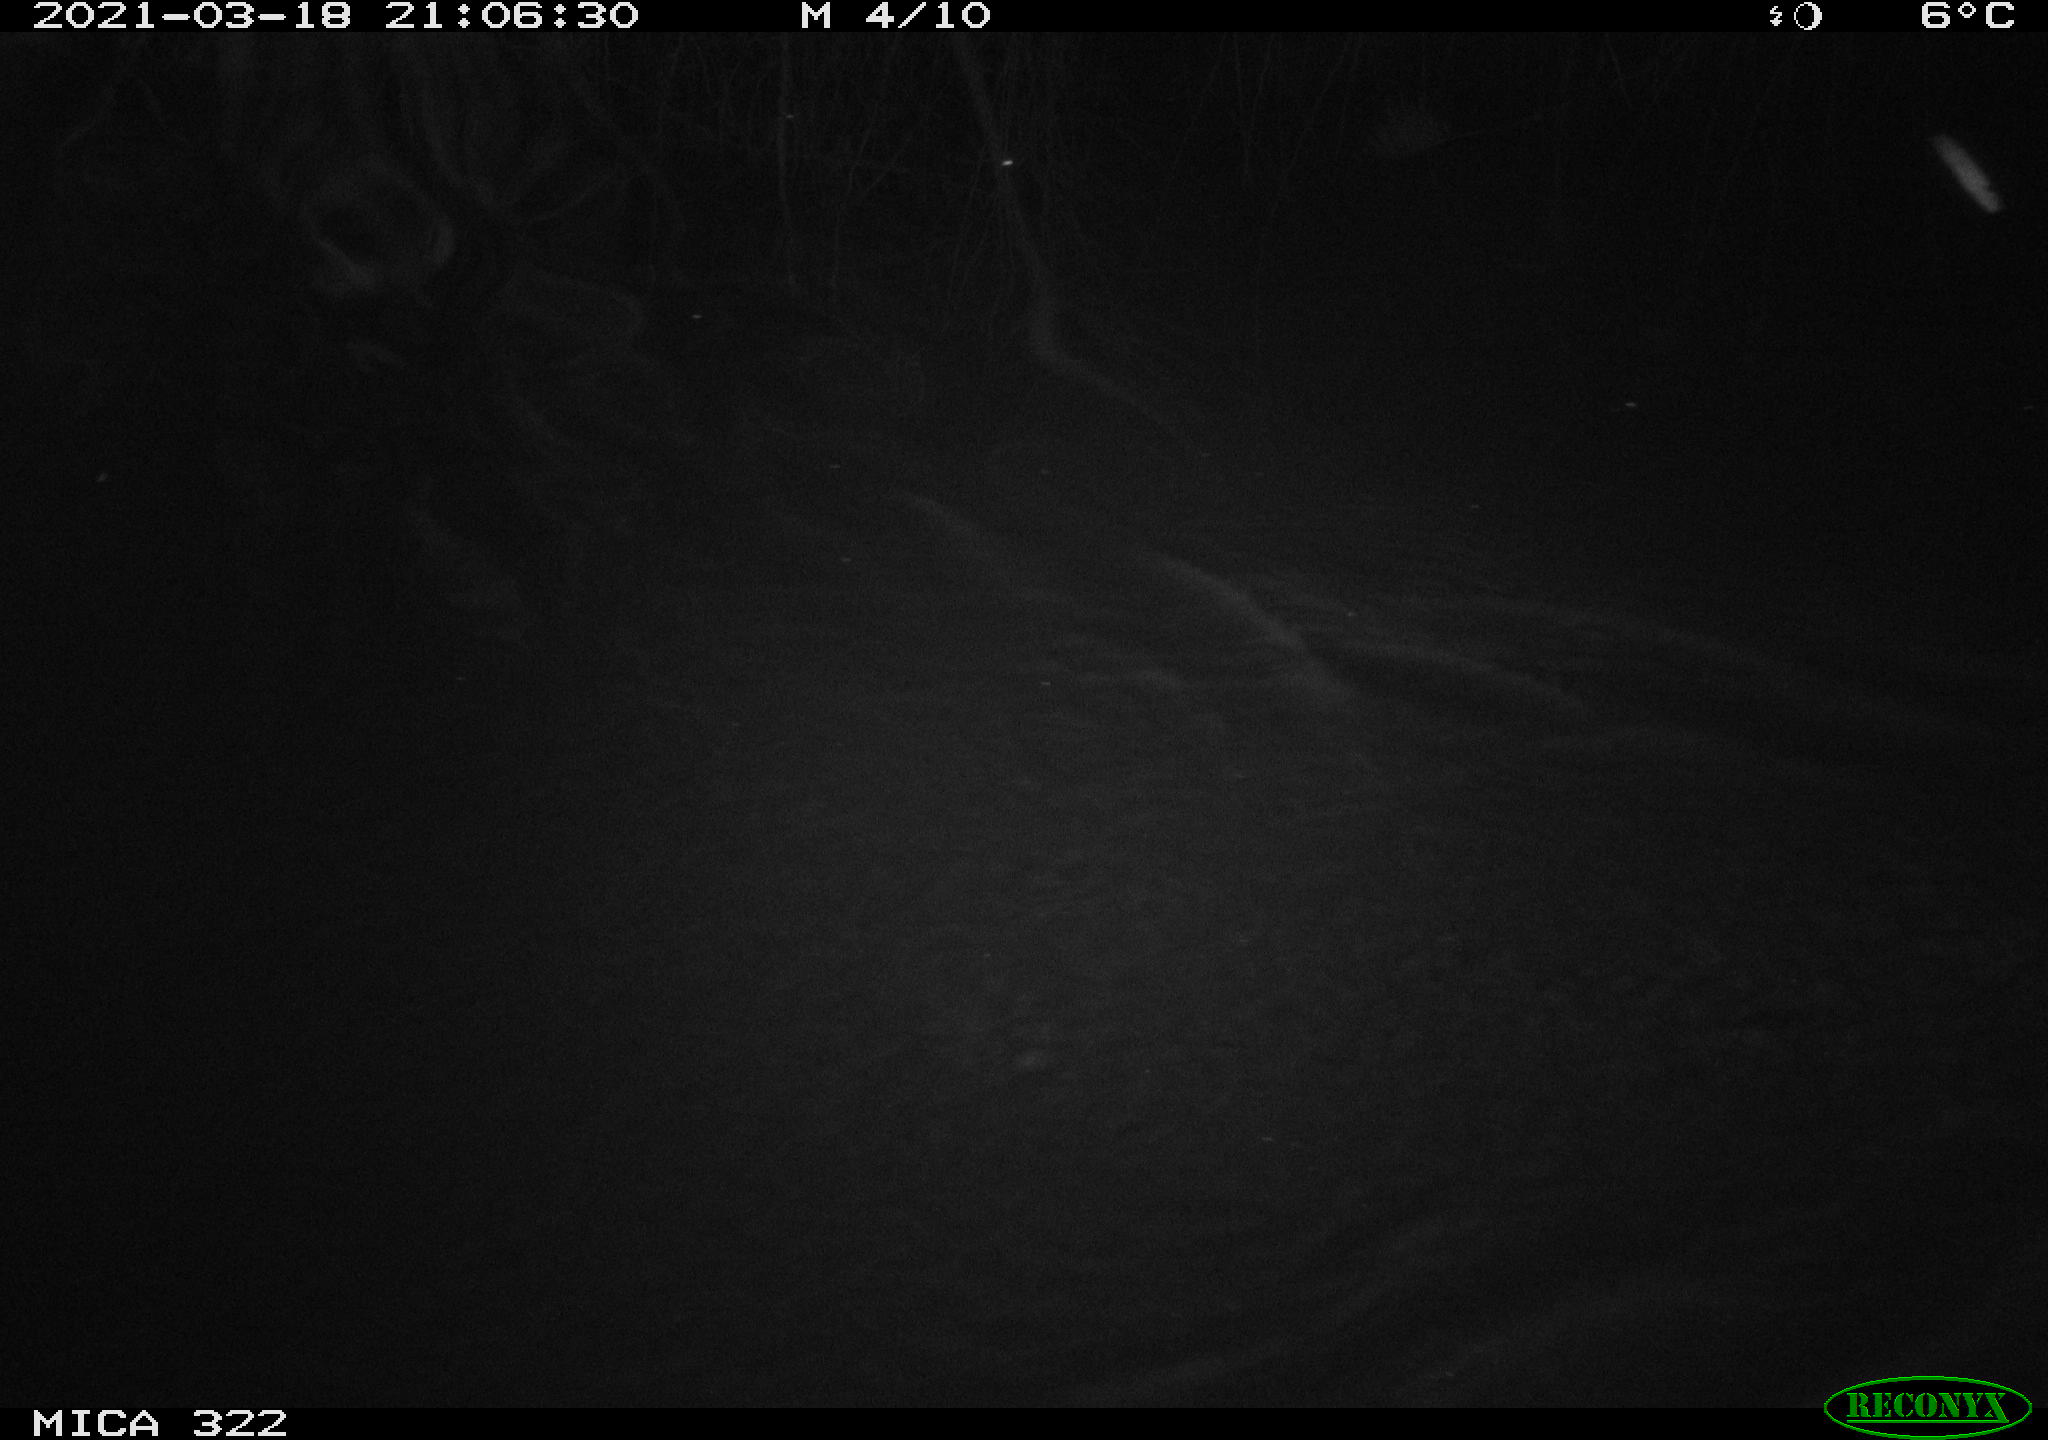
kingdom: Animalia
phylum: Chordata
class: Aves
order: Anseriformes
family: Anatidae
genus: Anas
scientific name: Anas platyrhynchos
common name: Mallard
